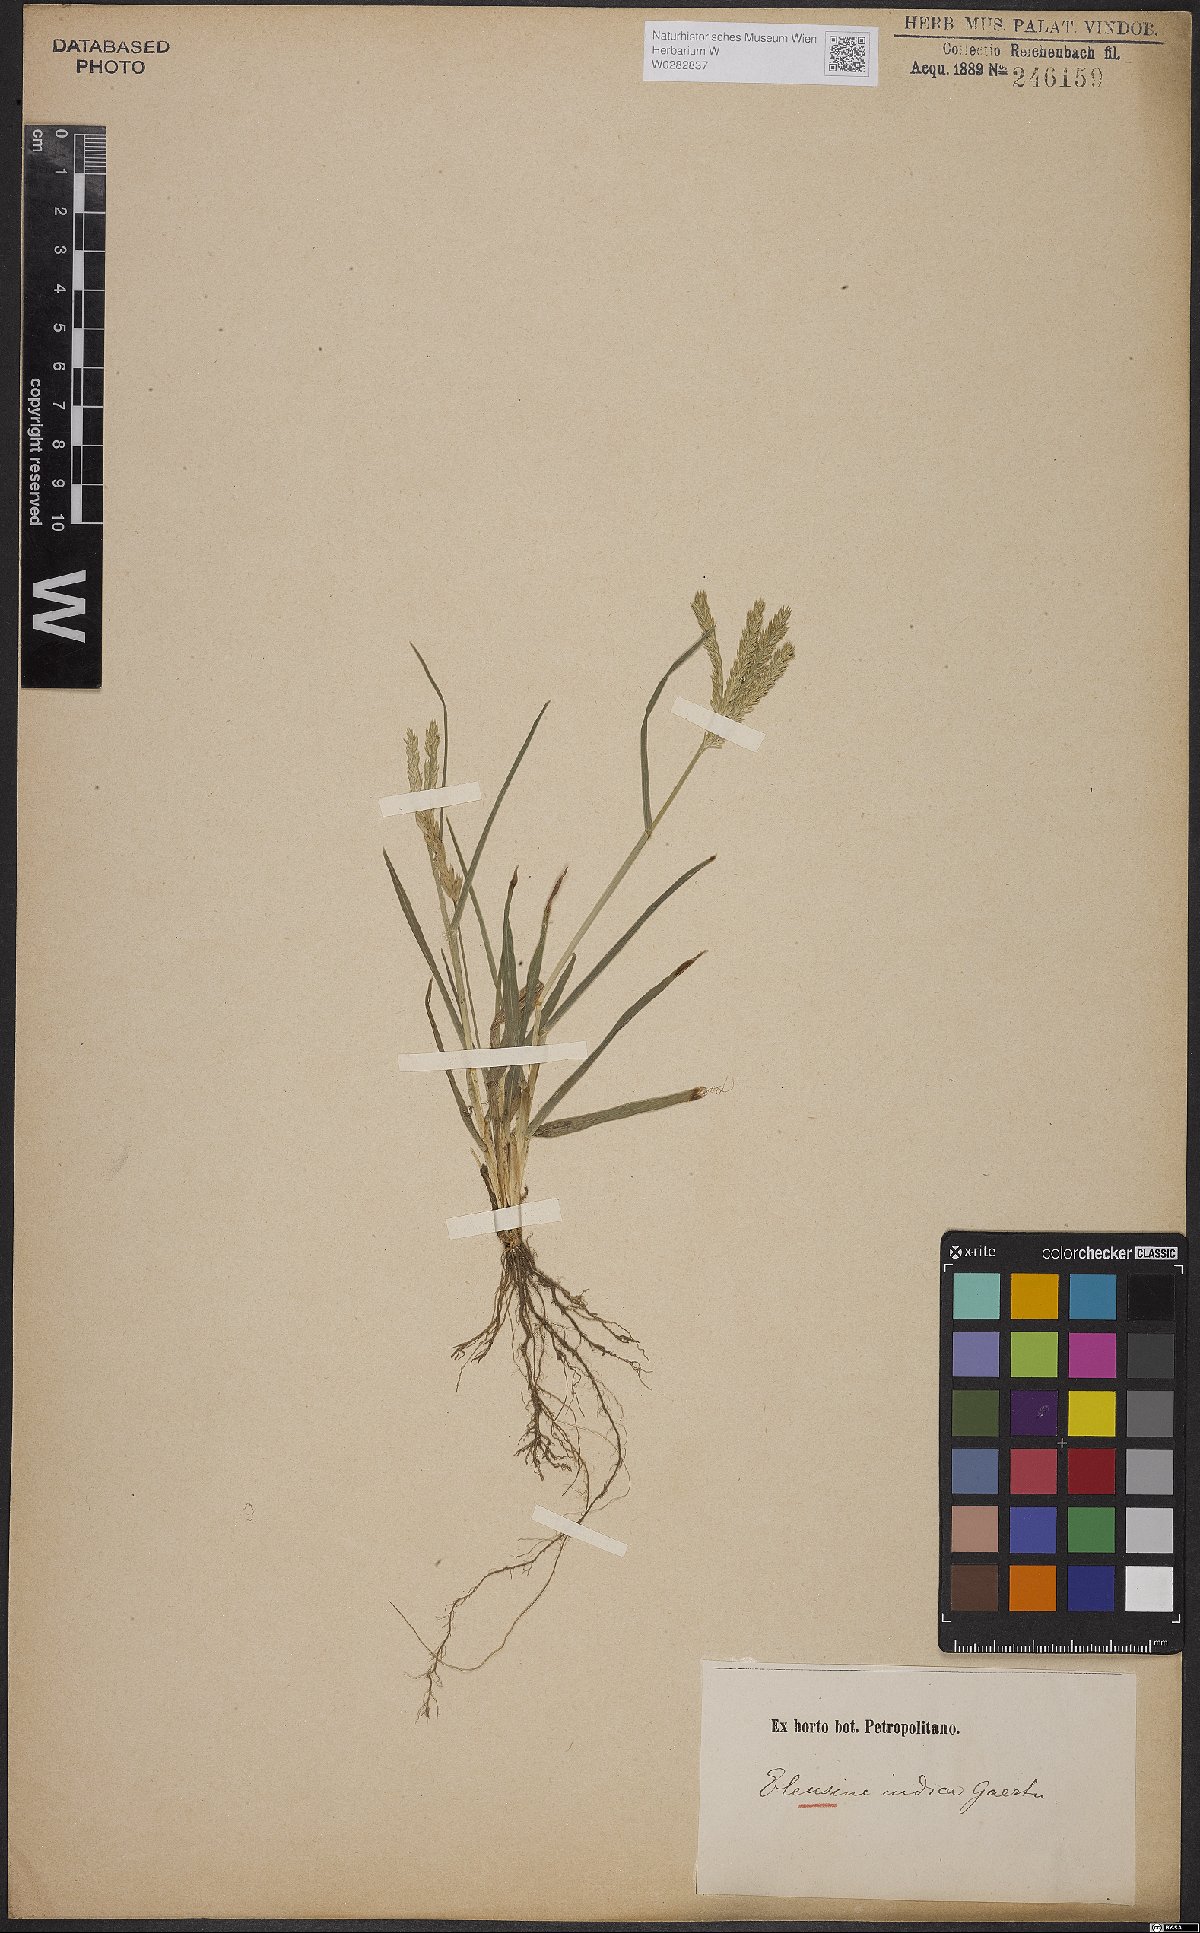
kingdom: Plantae
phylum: Tracheophyta
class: Liliopsida
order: Poales
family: Poaceae
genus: Eleusine
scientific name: Eleusine indica
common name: Yard-grass
